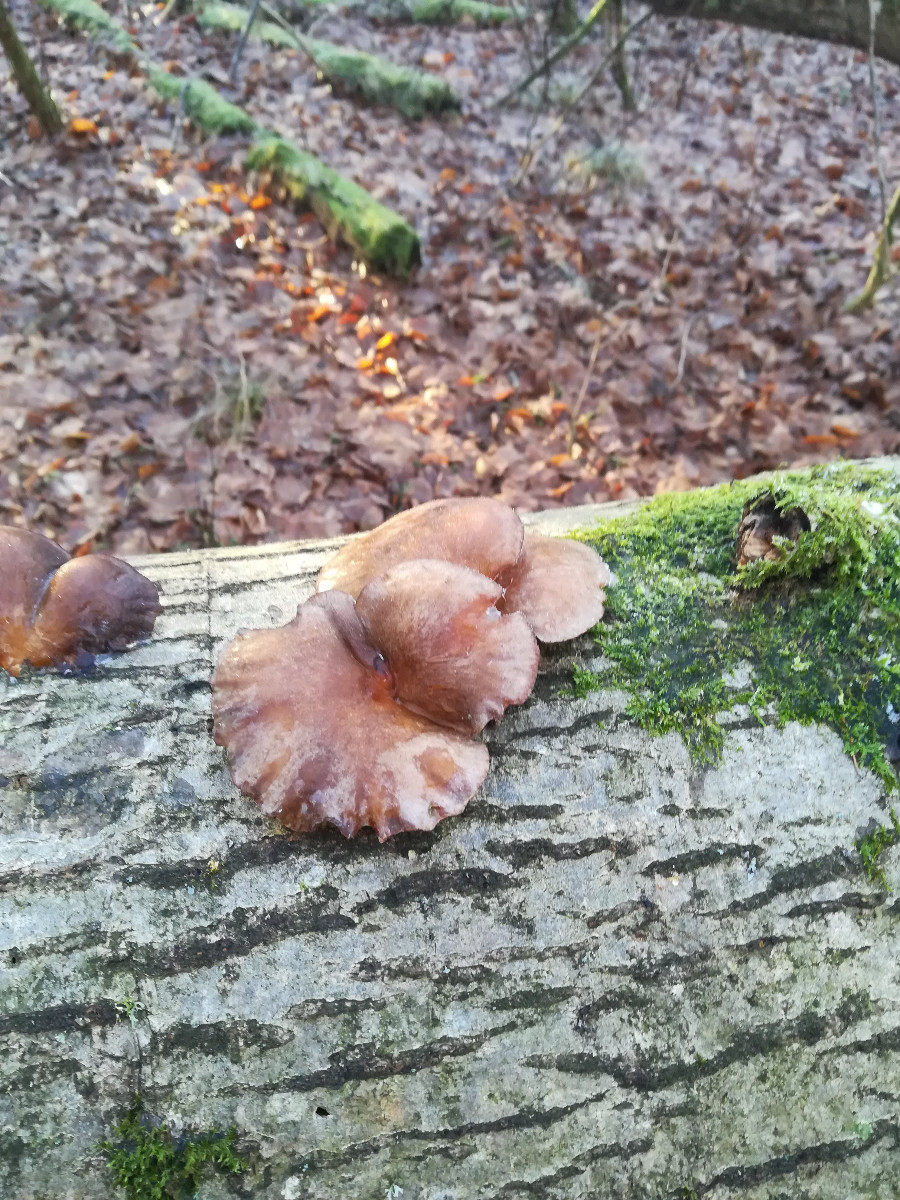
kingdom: Fungi
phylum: Basidiomycota
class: Agaricomycetes
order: Agaricales
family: Sarcomyxaceae
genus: Sarcomyxa
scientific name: Sarcomyxa serotina
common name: gummihat
